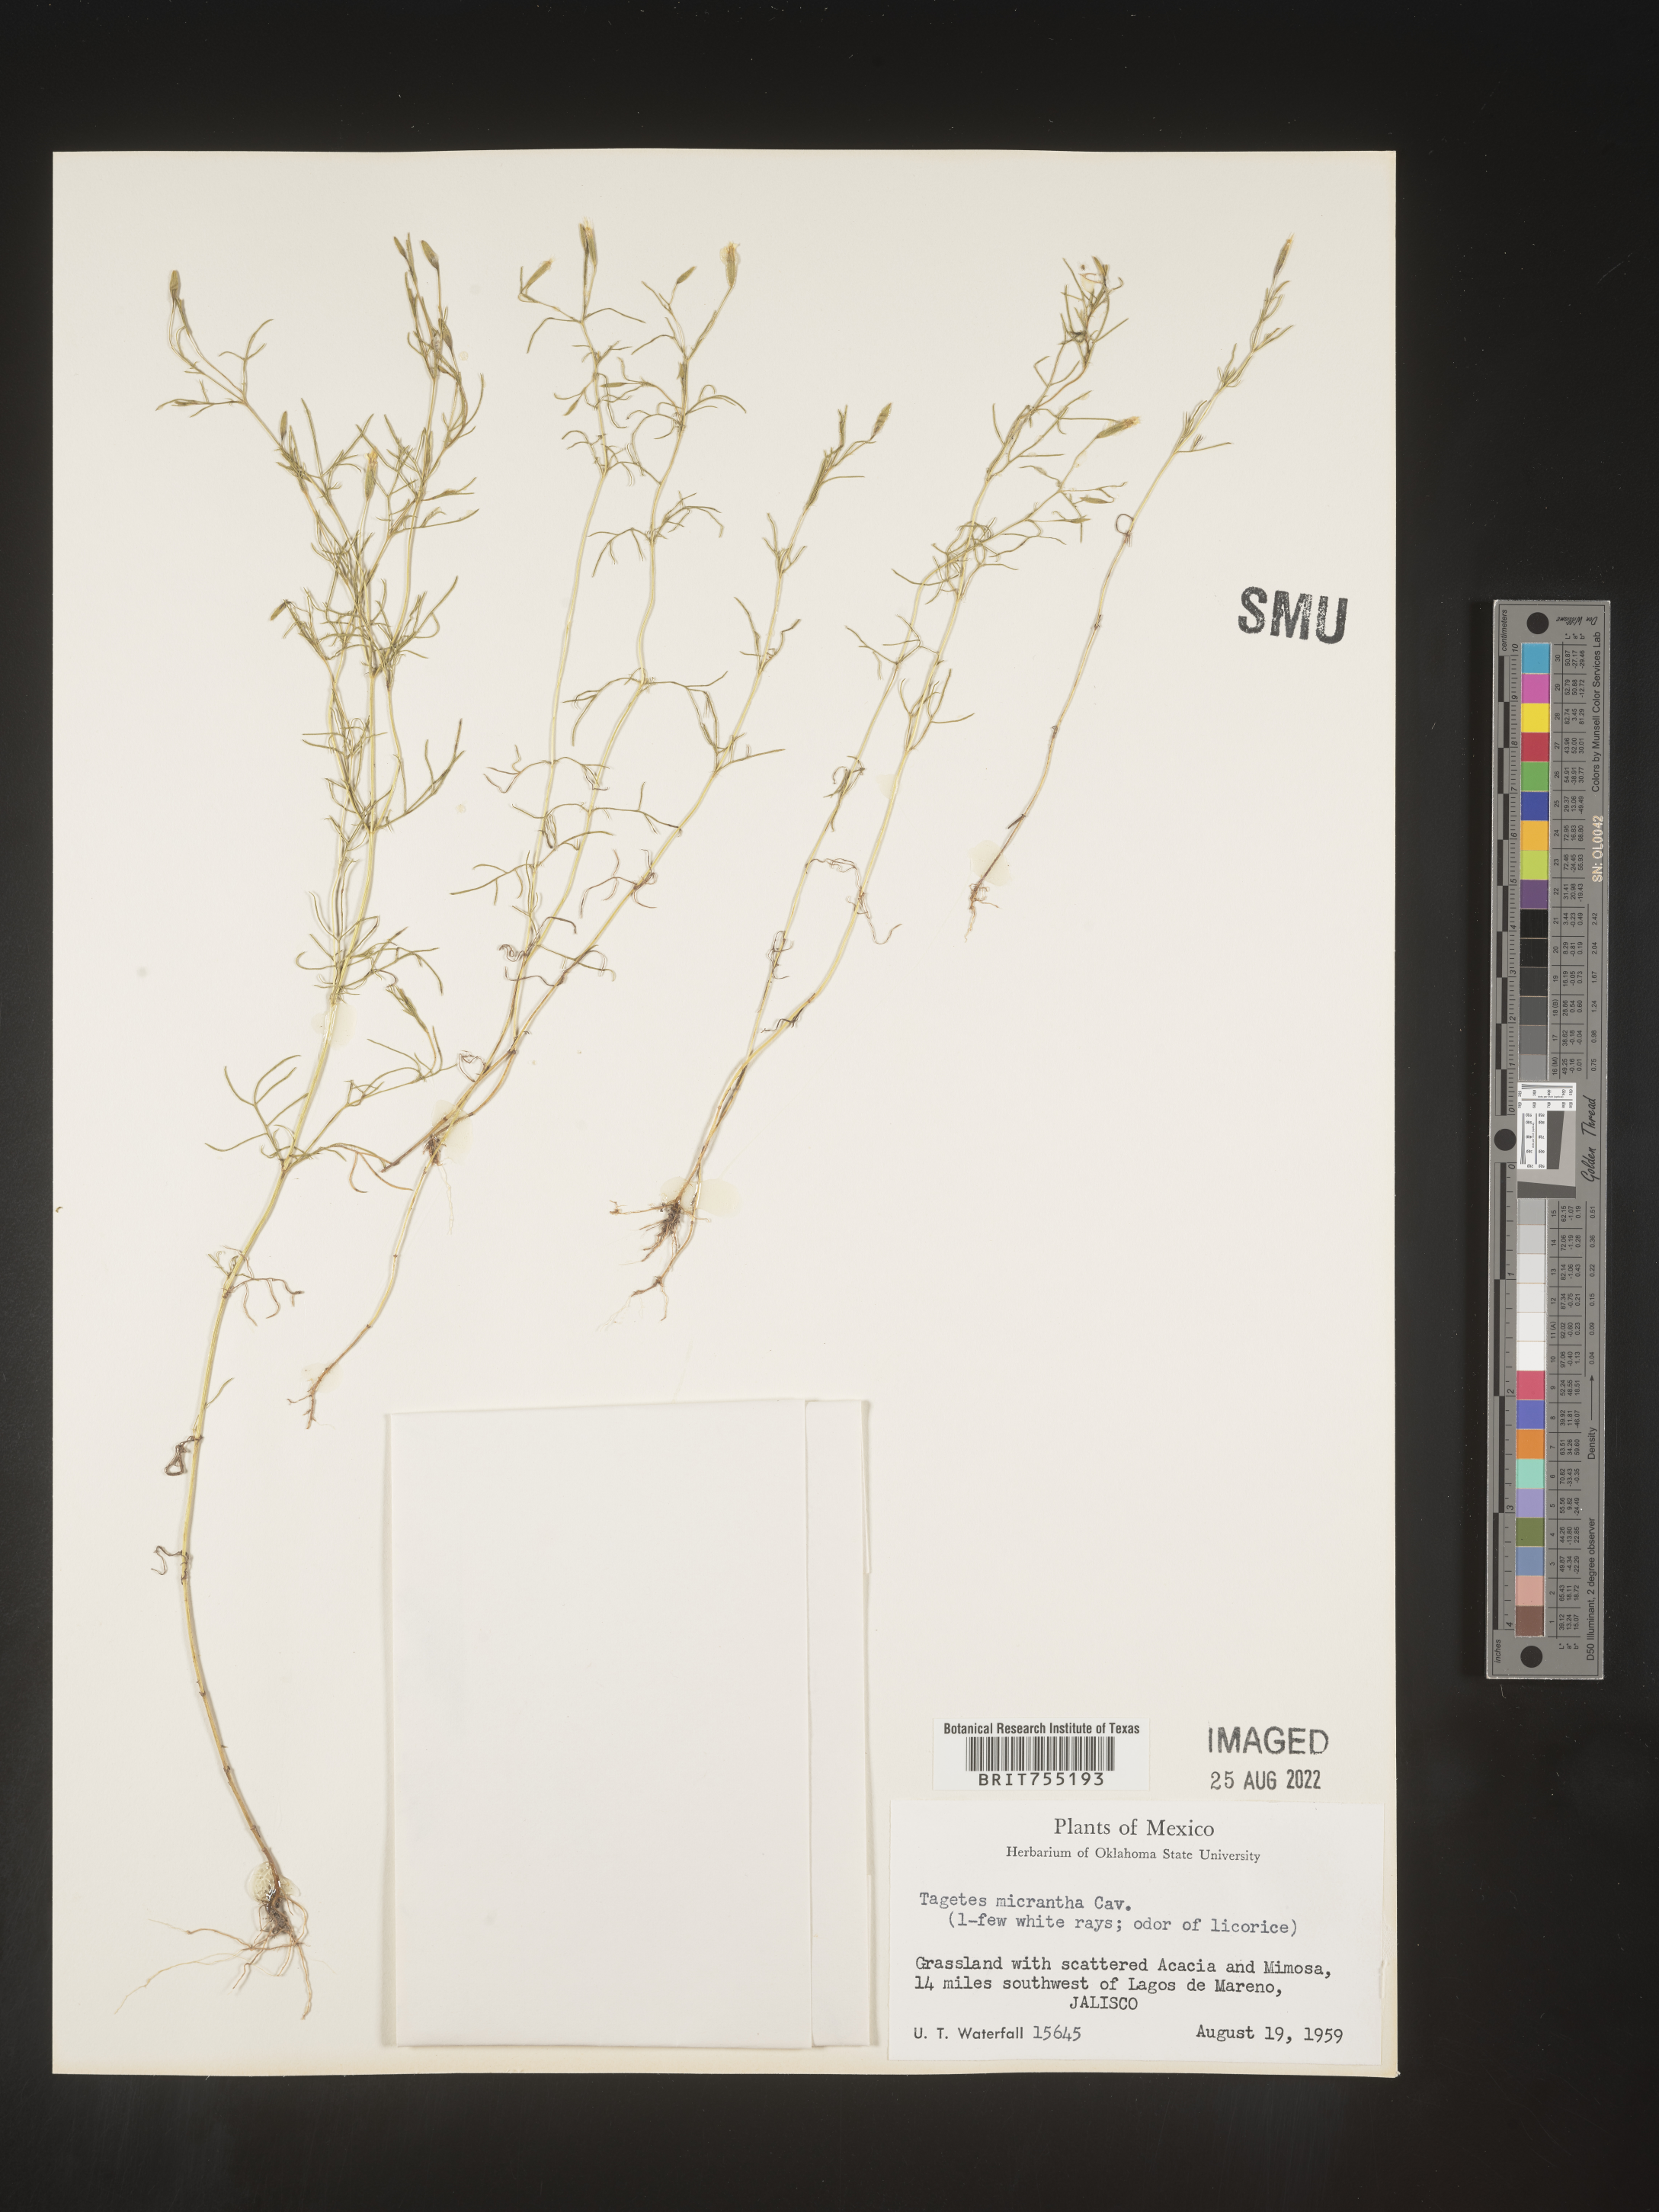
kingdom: Plantae
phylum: Tracheophyta
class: Magnoliopsida
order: Asterales
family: Asteraceae
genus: Tagetes
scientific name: Tagetes
